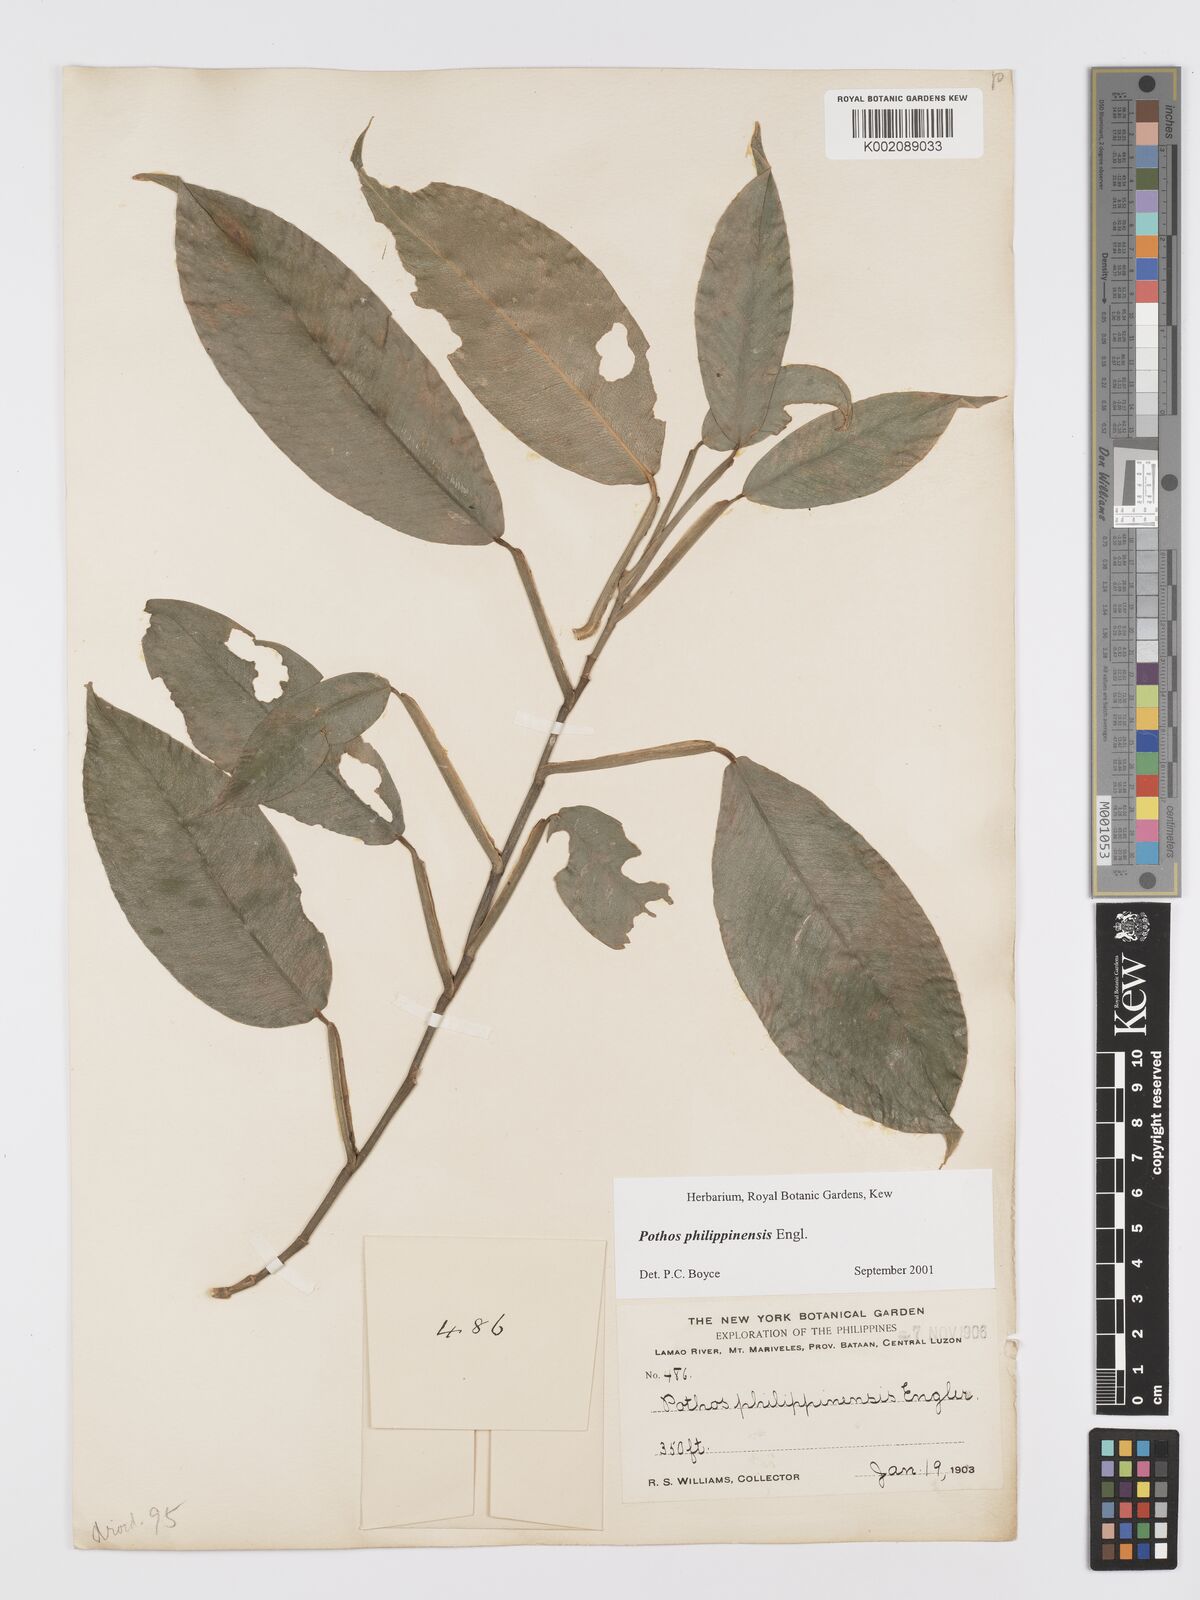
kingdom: Plantae
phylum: Tracheophyta
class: Liliopsida
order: Alismatales
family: Araceae
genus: Pothos
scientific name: Pothos philippinensis
